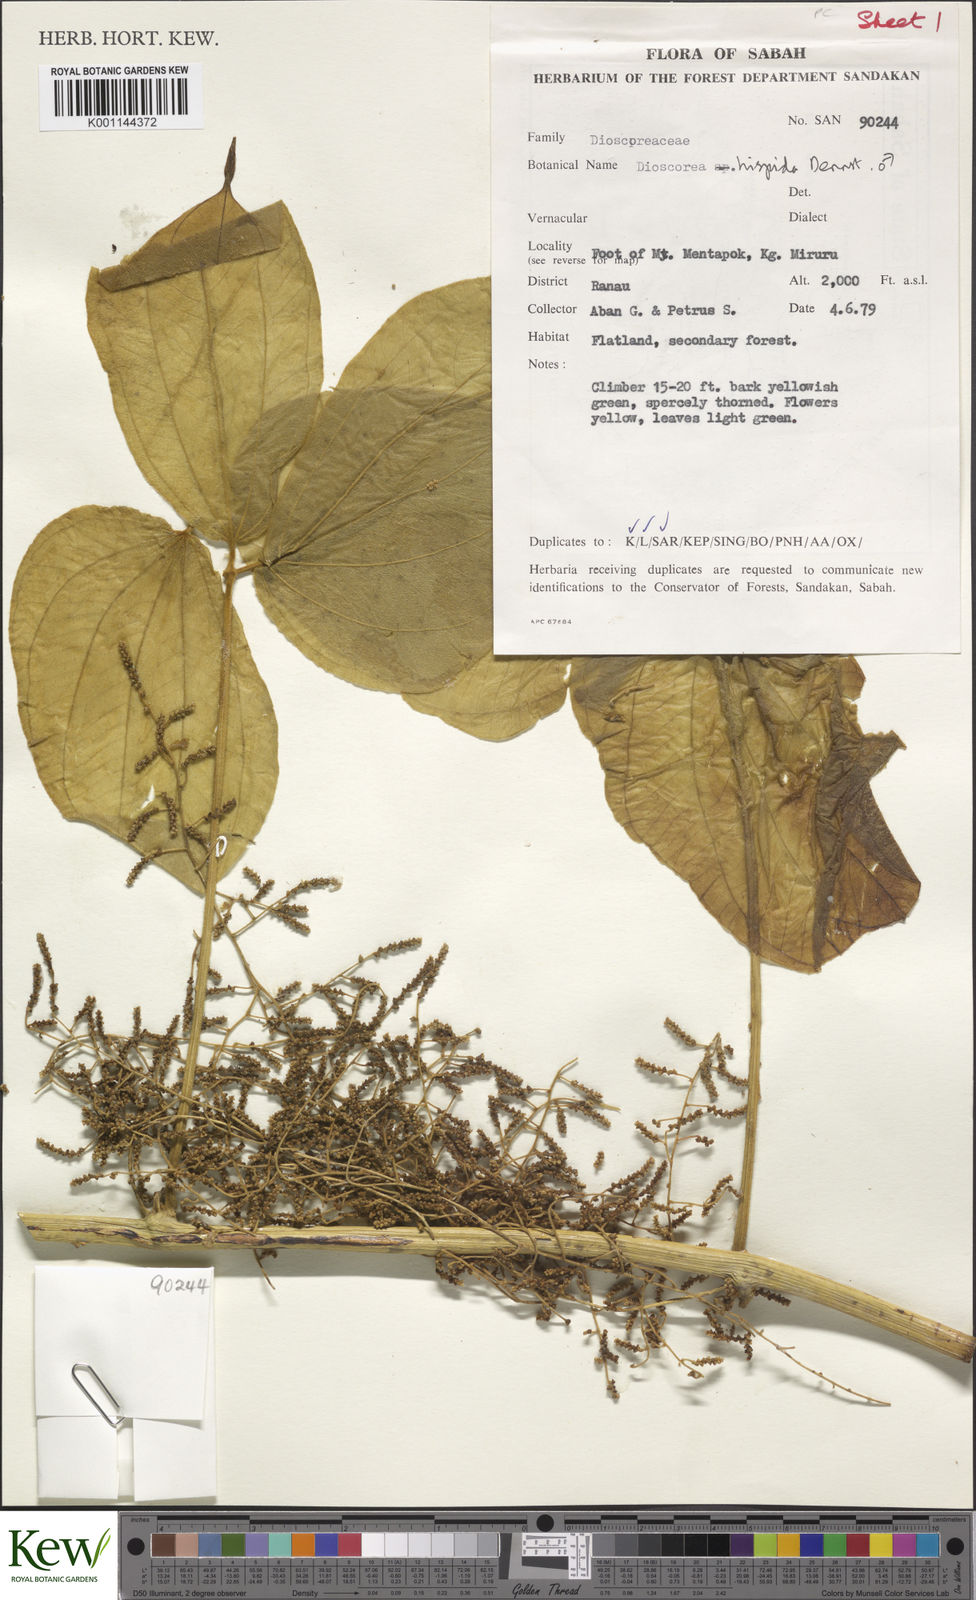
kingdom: Plantae
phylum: Tracheophyta
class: Liliopsida
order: Dioscoreales
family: Dioscoreaceae
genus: Dioscorea
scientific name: Dioscorea hispida
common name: Asiatic bitter yam
